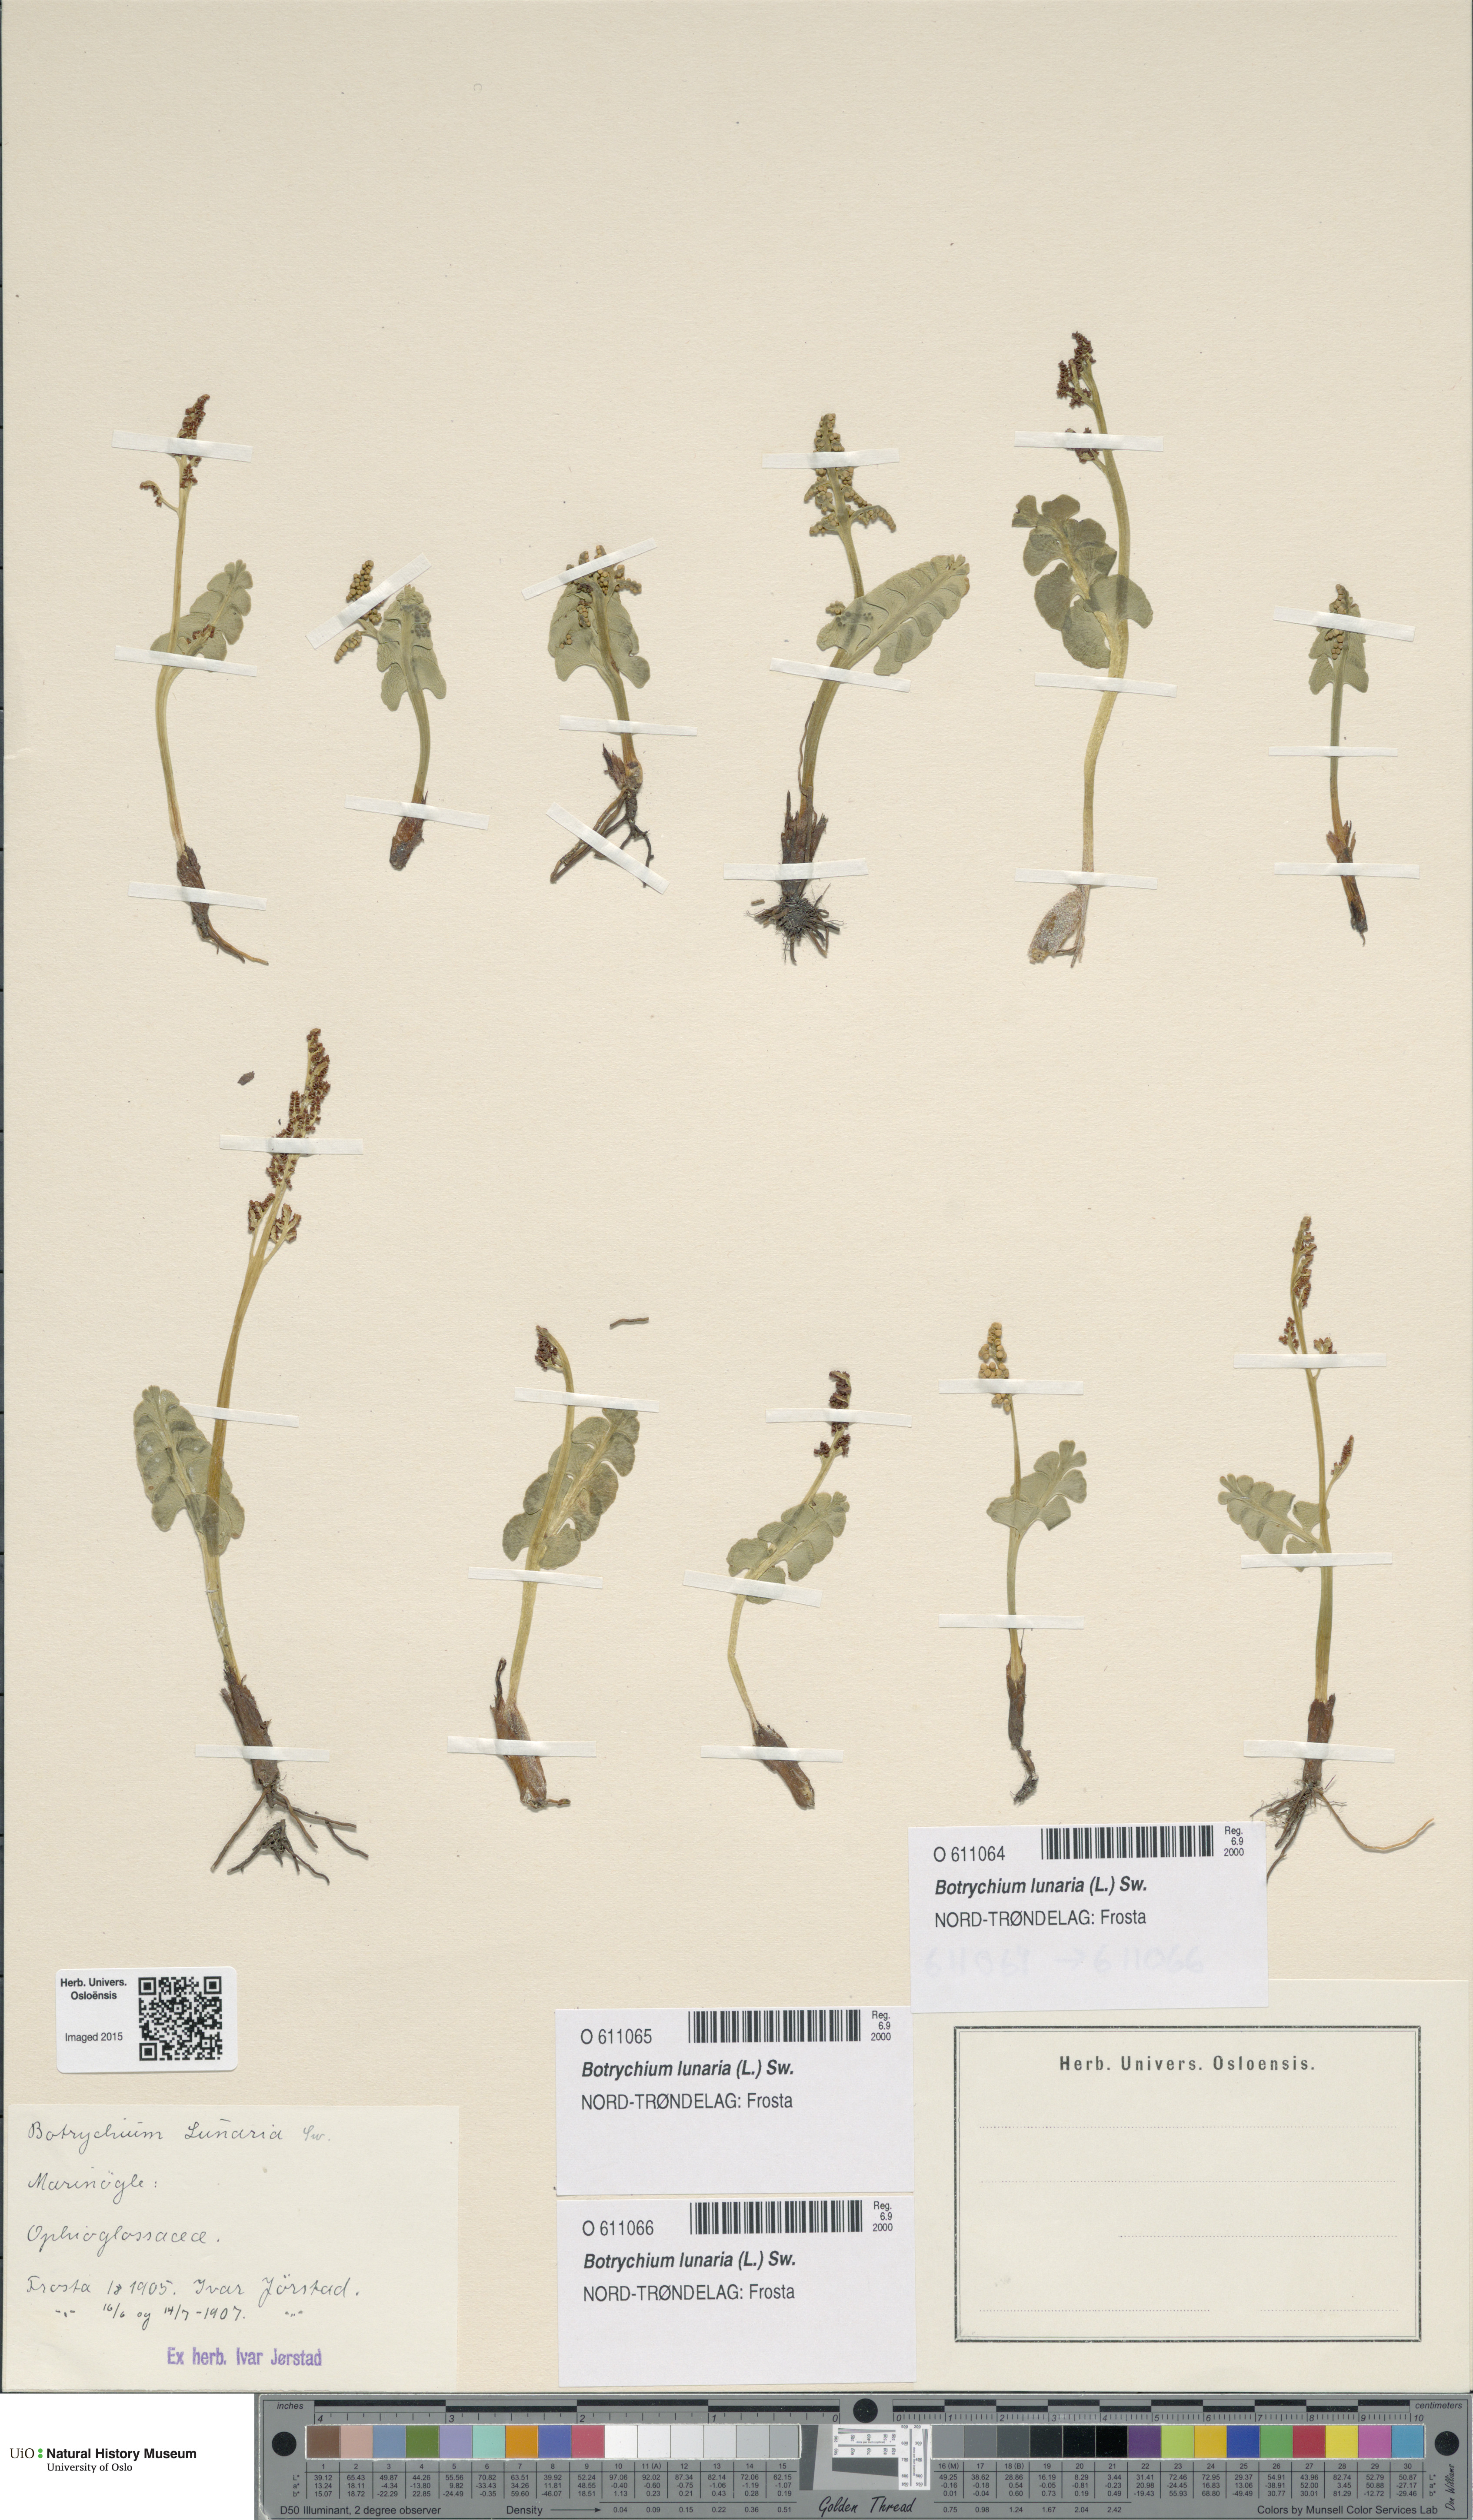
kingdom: Plantae
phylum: Tracheophyta
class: Polypodiopsida
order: Ophioglossales
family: Ophioglossaceae
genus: Botrychium
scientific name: Botrychium lunaria
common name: Moonwort
